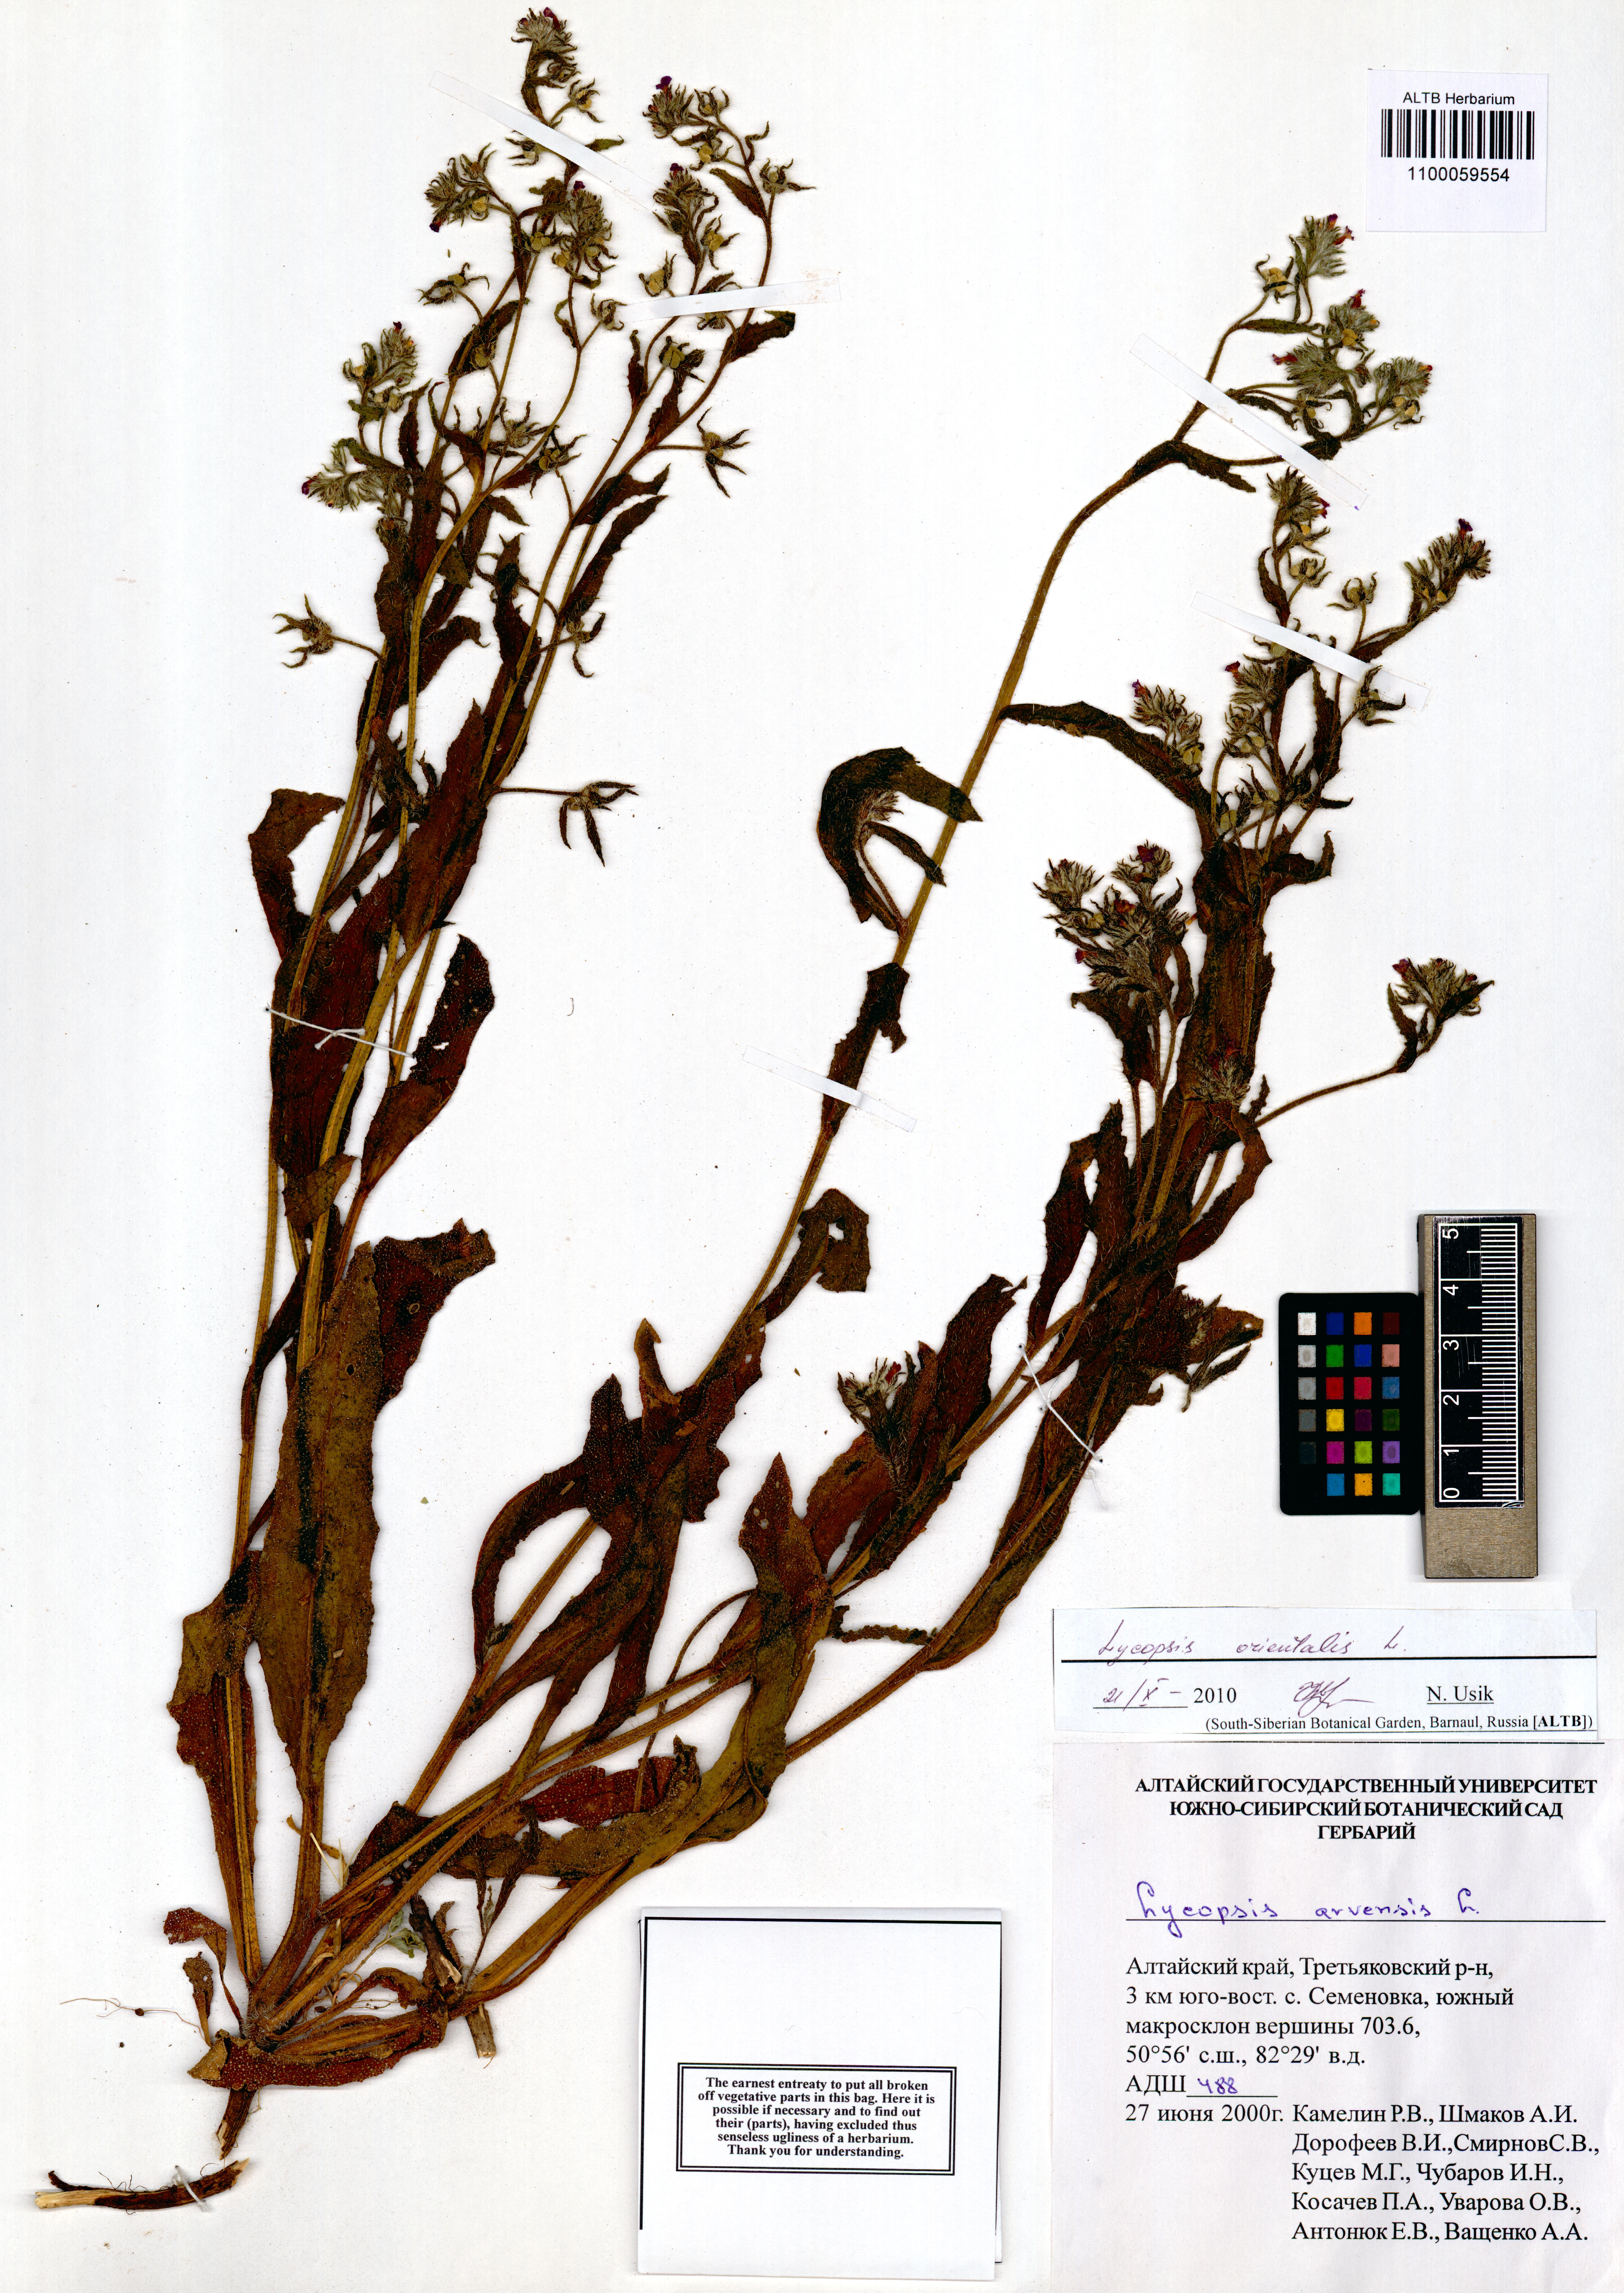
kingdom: Plantae
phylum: Tracheophyta
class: Magnoliopsida
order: Boraginales
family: Boraginaceae
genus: Lycopsis
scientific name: Lycopsis arvensis
